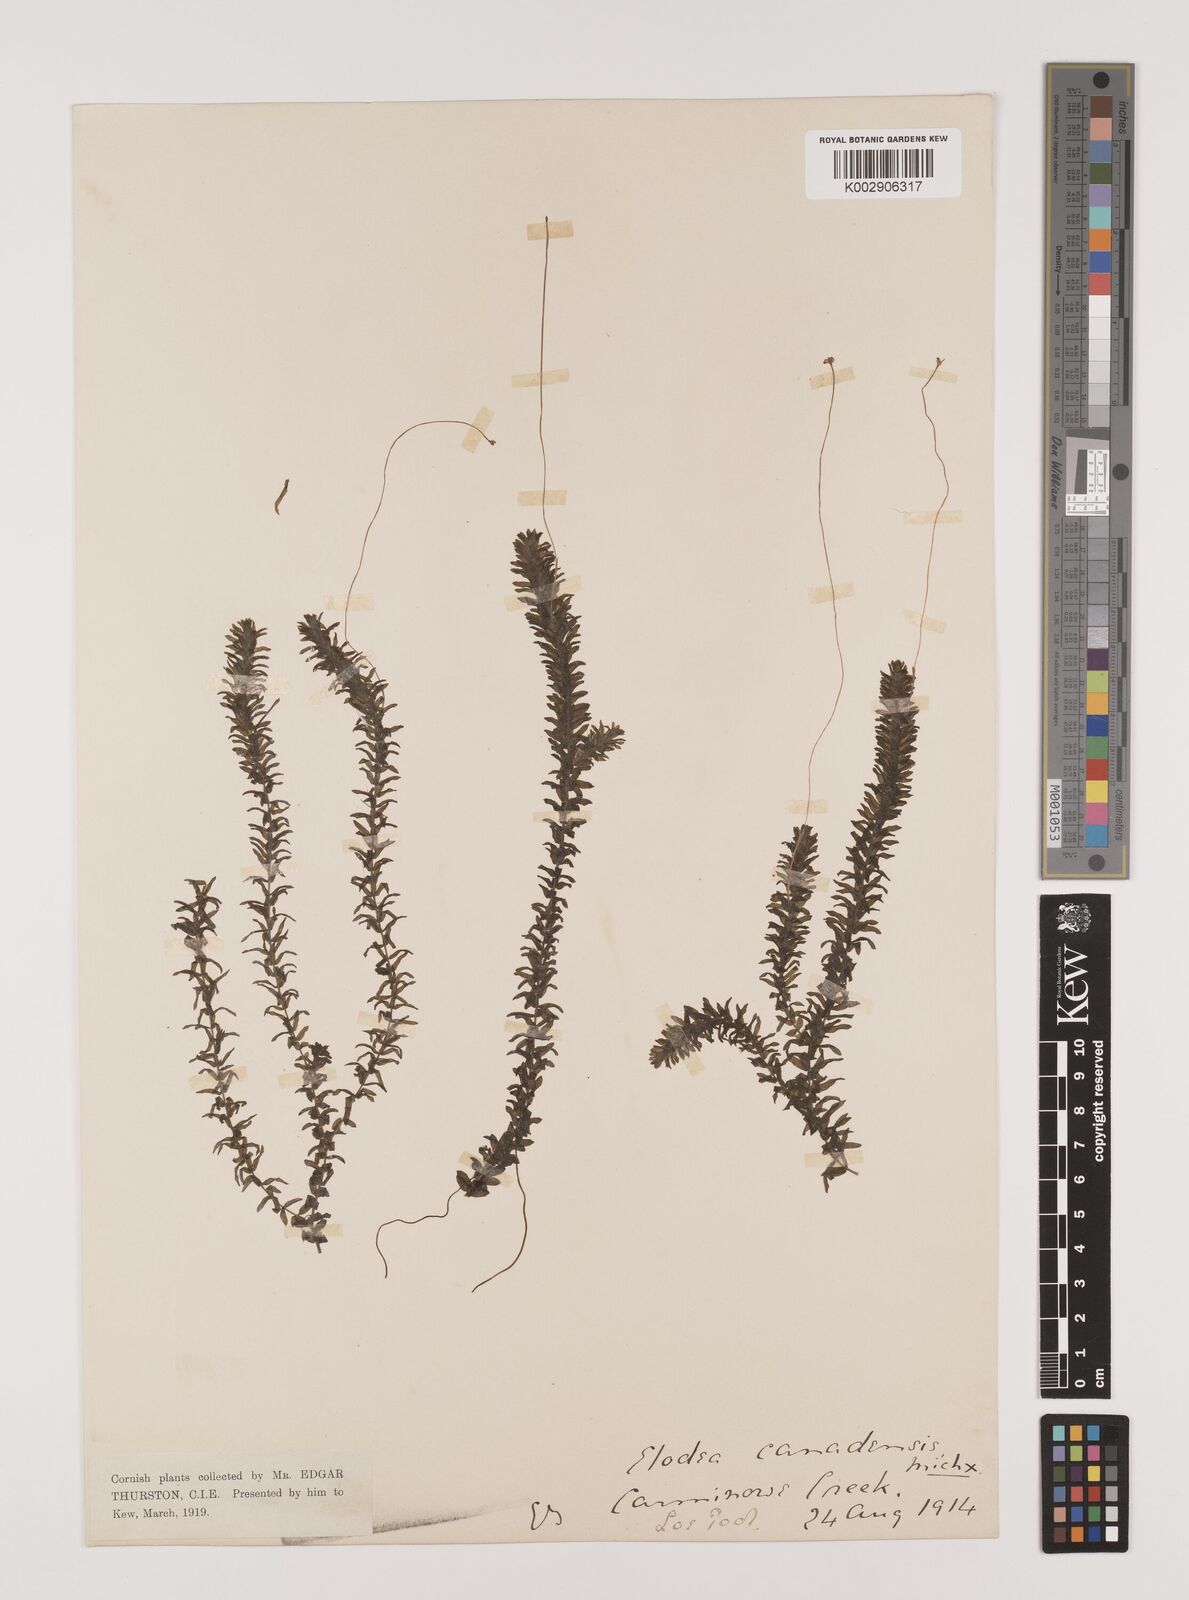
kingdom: Plantae
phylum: Tracheophyta
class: Liliopsida
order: Alismatales
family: Hydrocharitaceae
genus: Elodea
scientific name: Elodea canadensis
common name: Canadian waterweed
